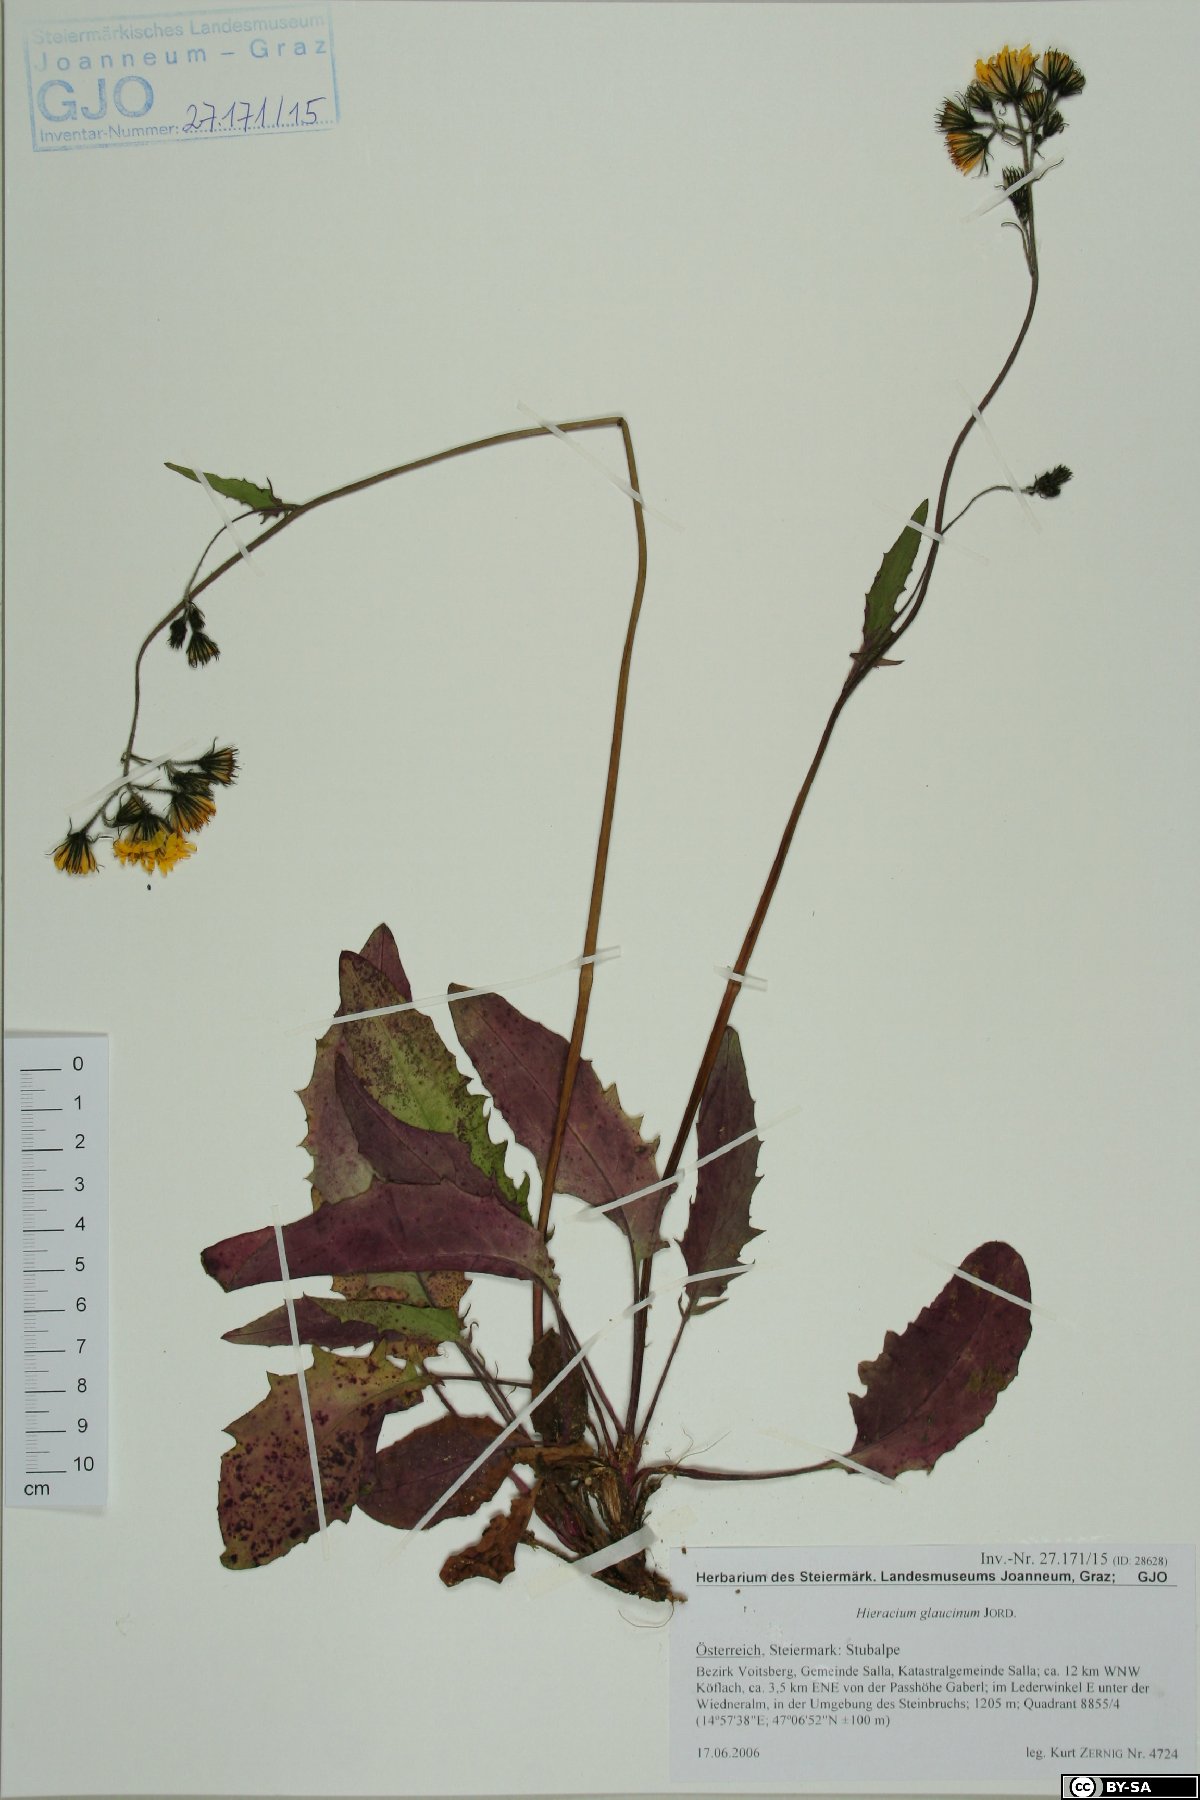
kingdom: Plantae
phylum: Tracheophyta
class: Magnoliopsida
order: Asterales
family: Asteraceae
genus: Hieracium
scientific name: Hieracium glaucinum
